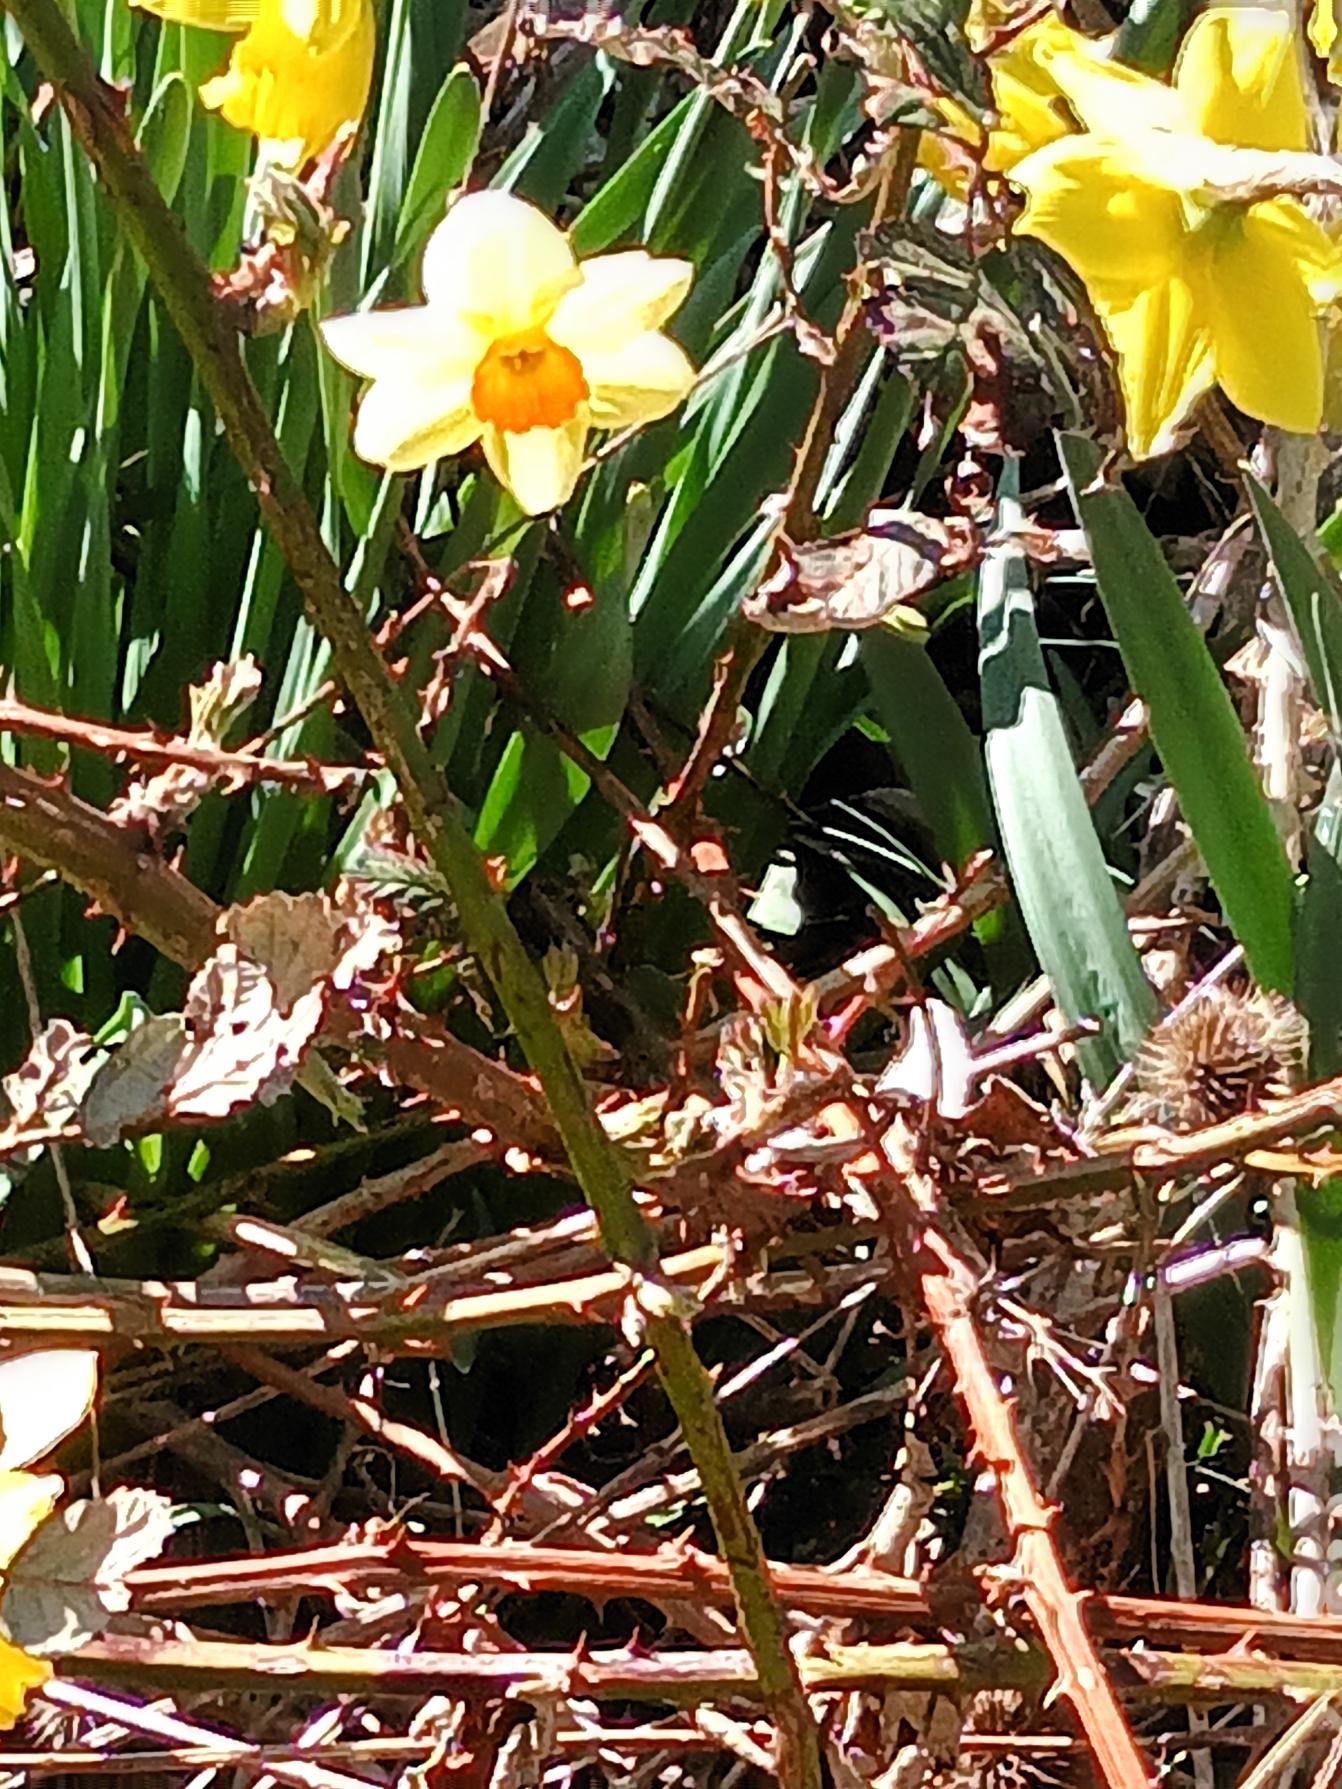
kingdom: Plantae
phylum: Tracheophyta
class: Liliopsida
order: Asparagales
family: Amaryllidaceae
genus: Narcissus
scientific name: Narcissus incomparabilis
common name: Ægte narcis
